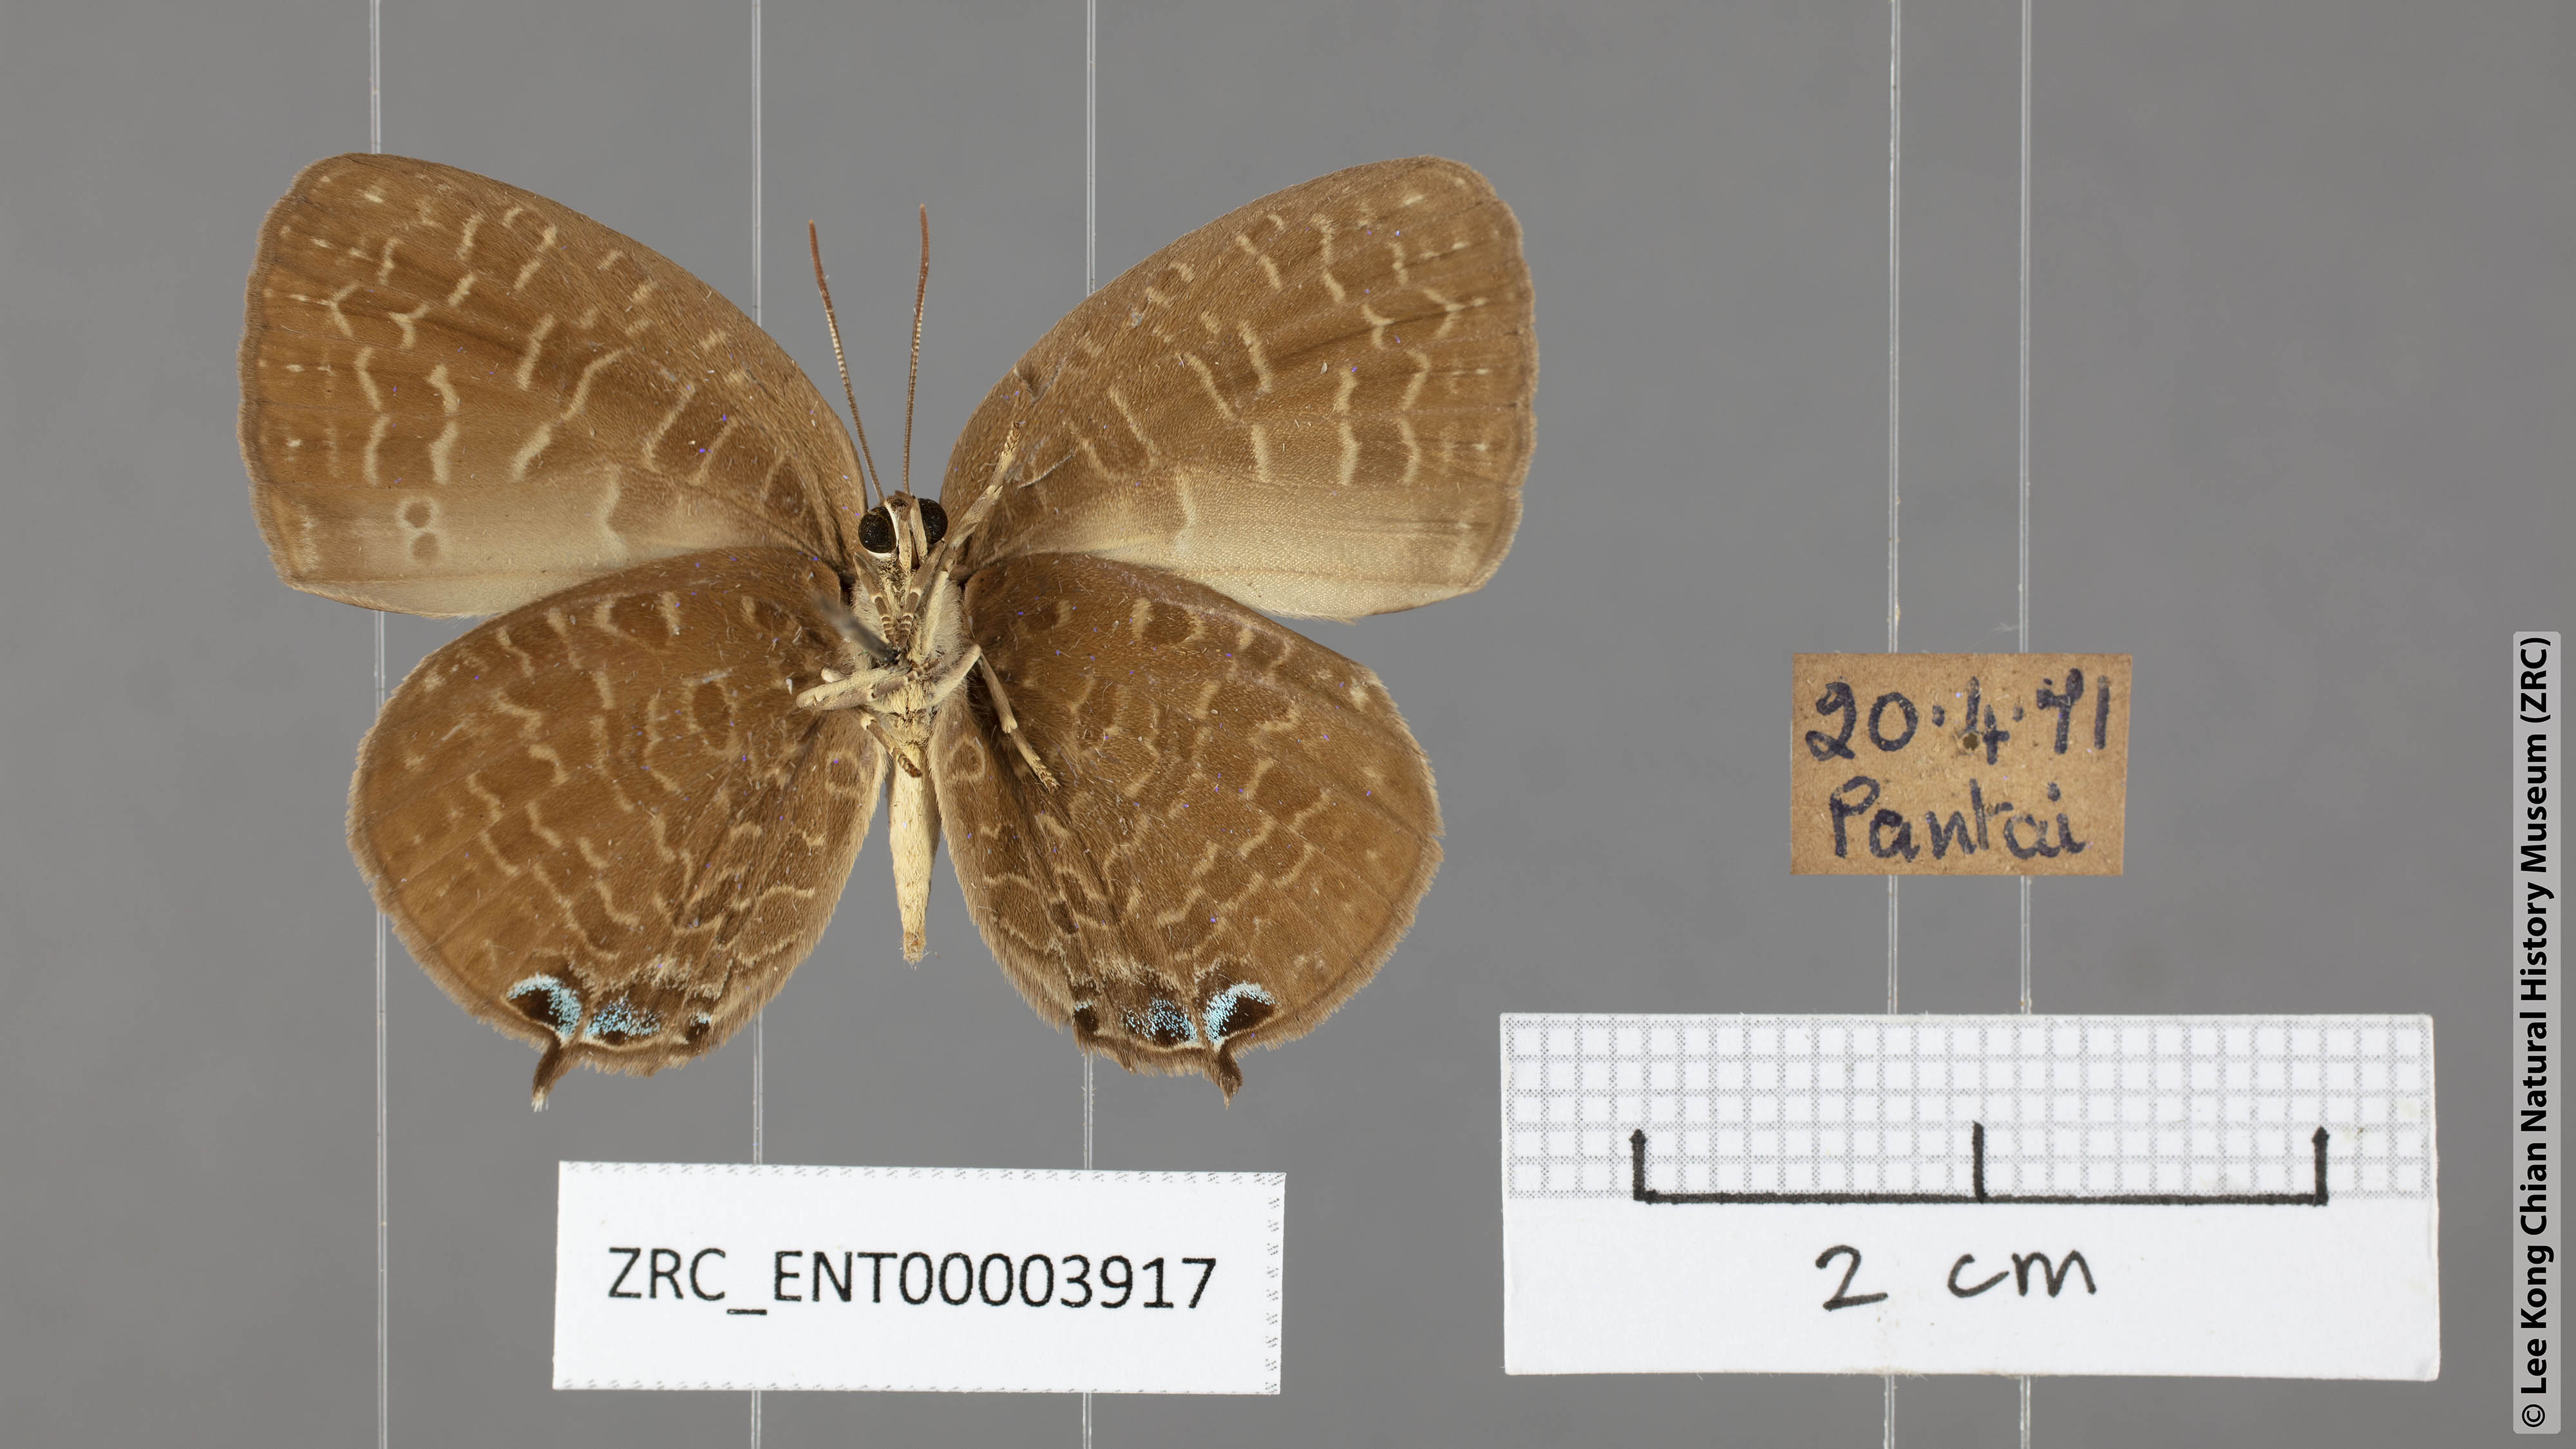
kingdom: Animalia
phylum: Arthropoda
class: Insecta
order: Lepidoptera
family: Lycaenidae
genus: Arhopala
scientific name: Arhopala democritus
